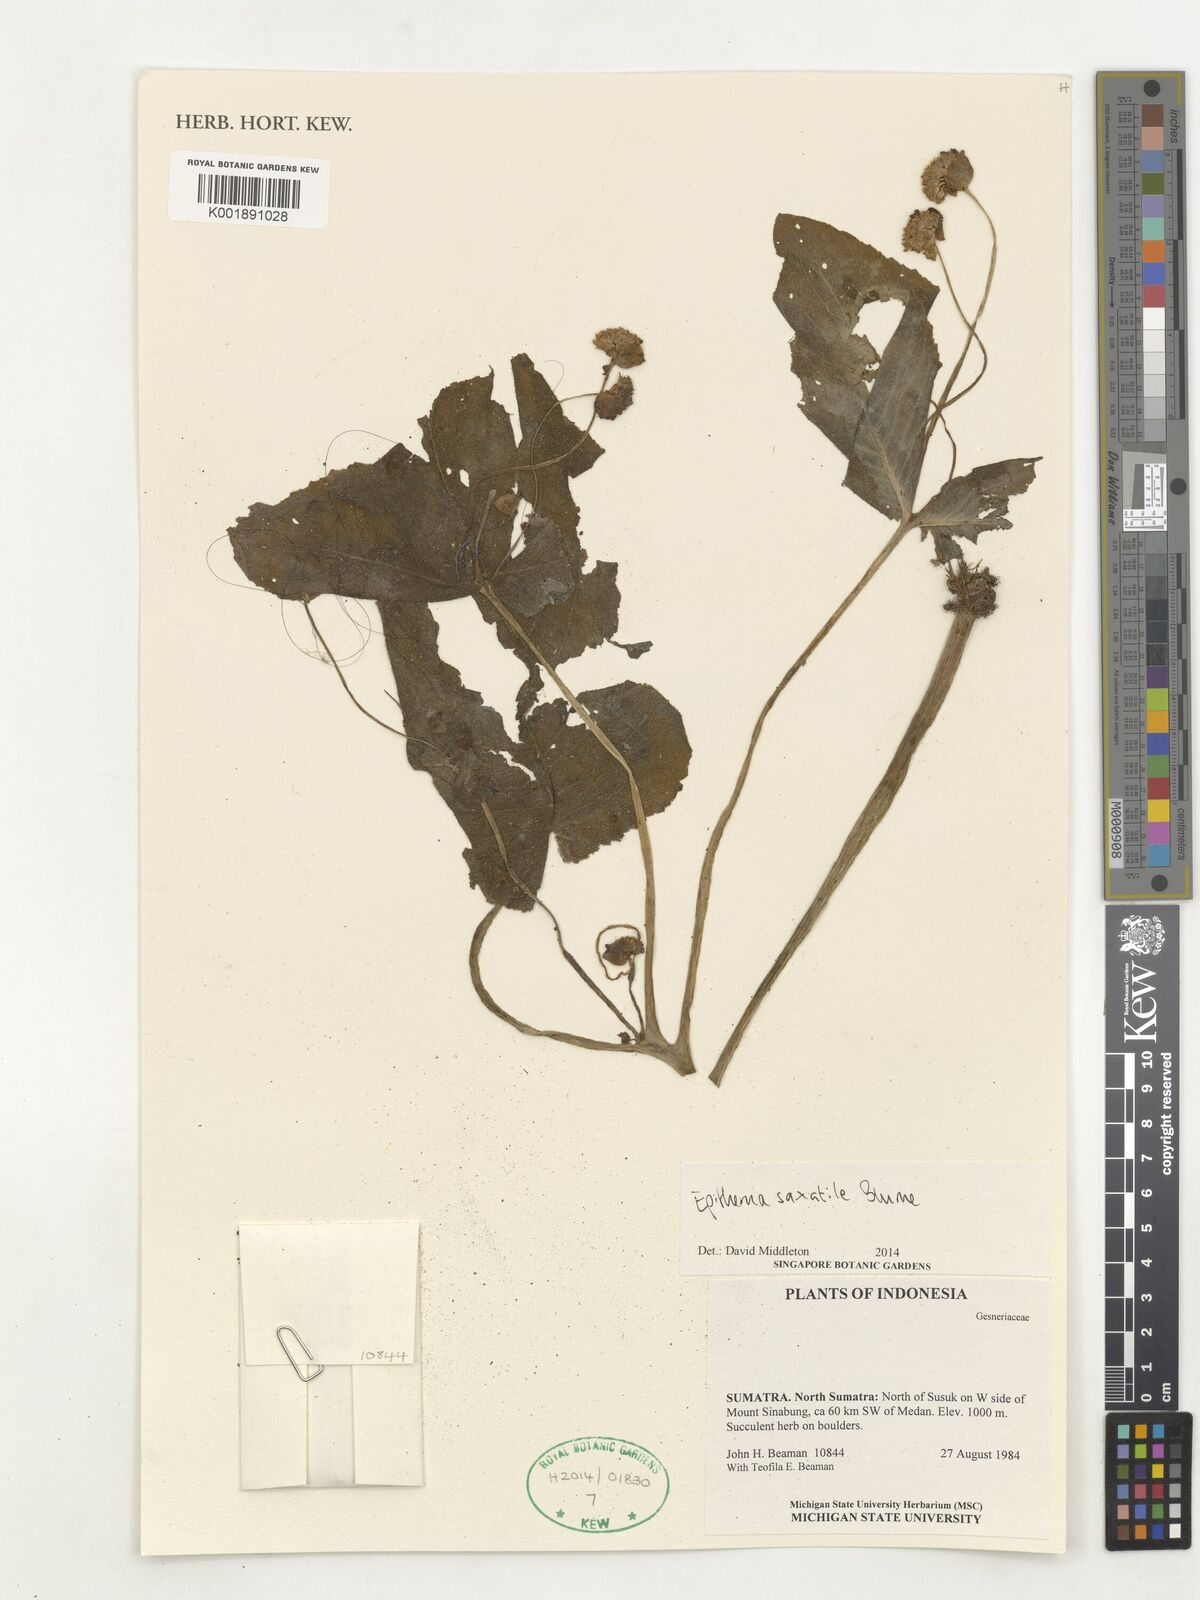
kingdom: Plantae
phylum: Tracheophyta
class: Magnoliopsida
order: Lamiales
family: Gesneriaceae
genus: Epithema
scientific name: Epithema saxatile
